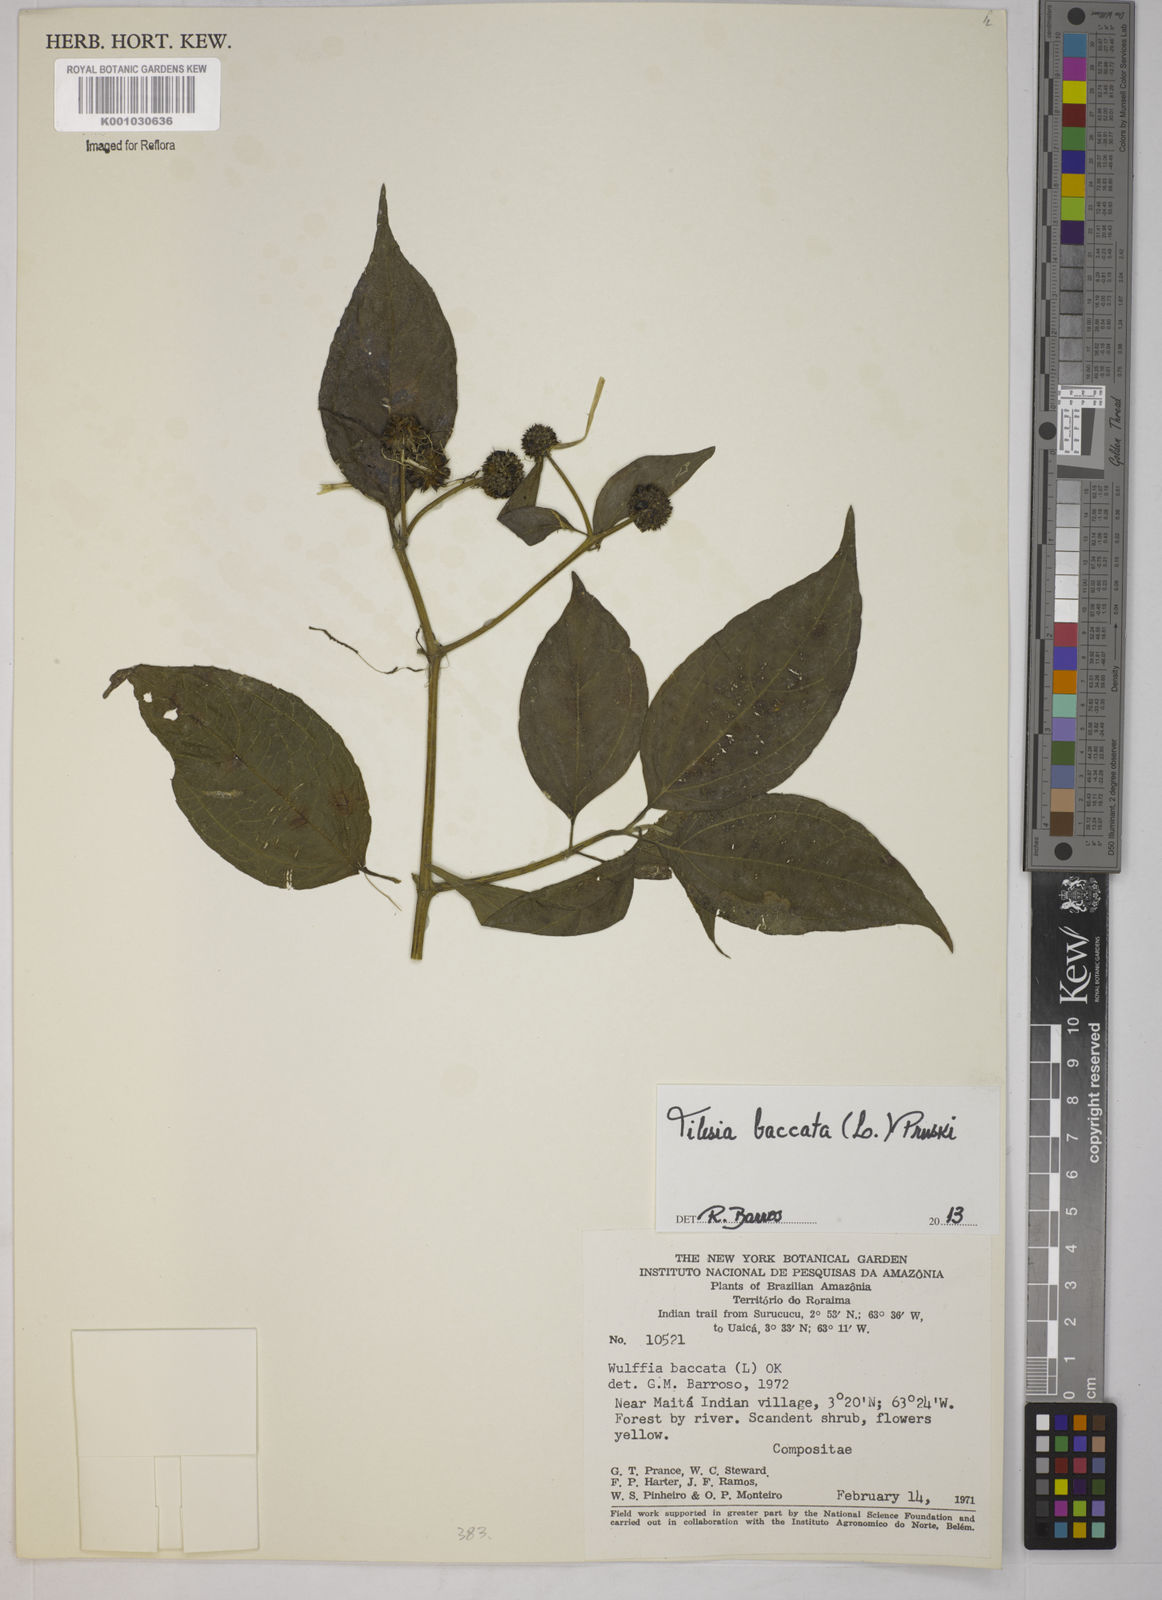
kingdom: Plantae
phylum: Tracheophyta
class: Magnoliopsida
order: Asterales
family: Asteraceae
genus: Tilesia
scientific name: Tilesia baccata
